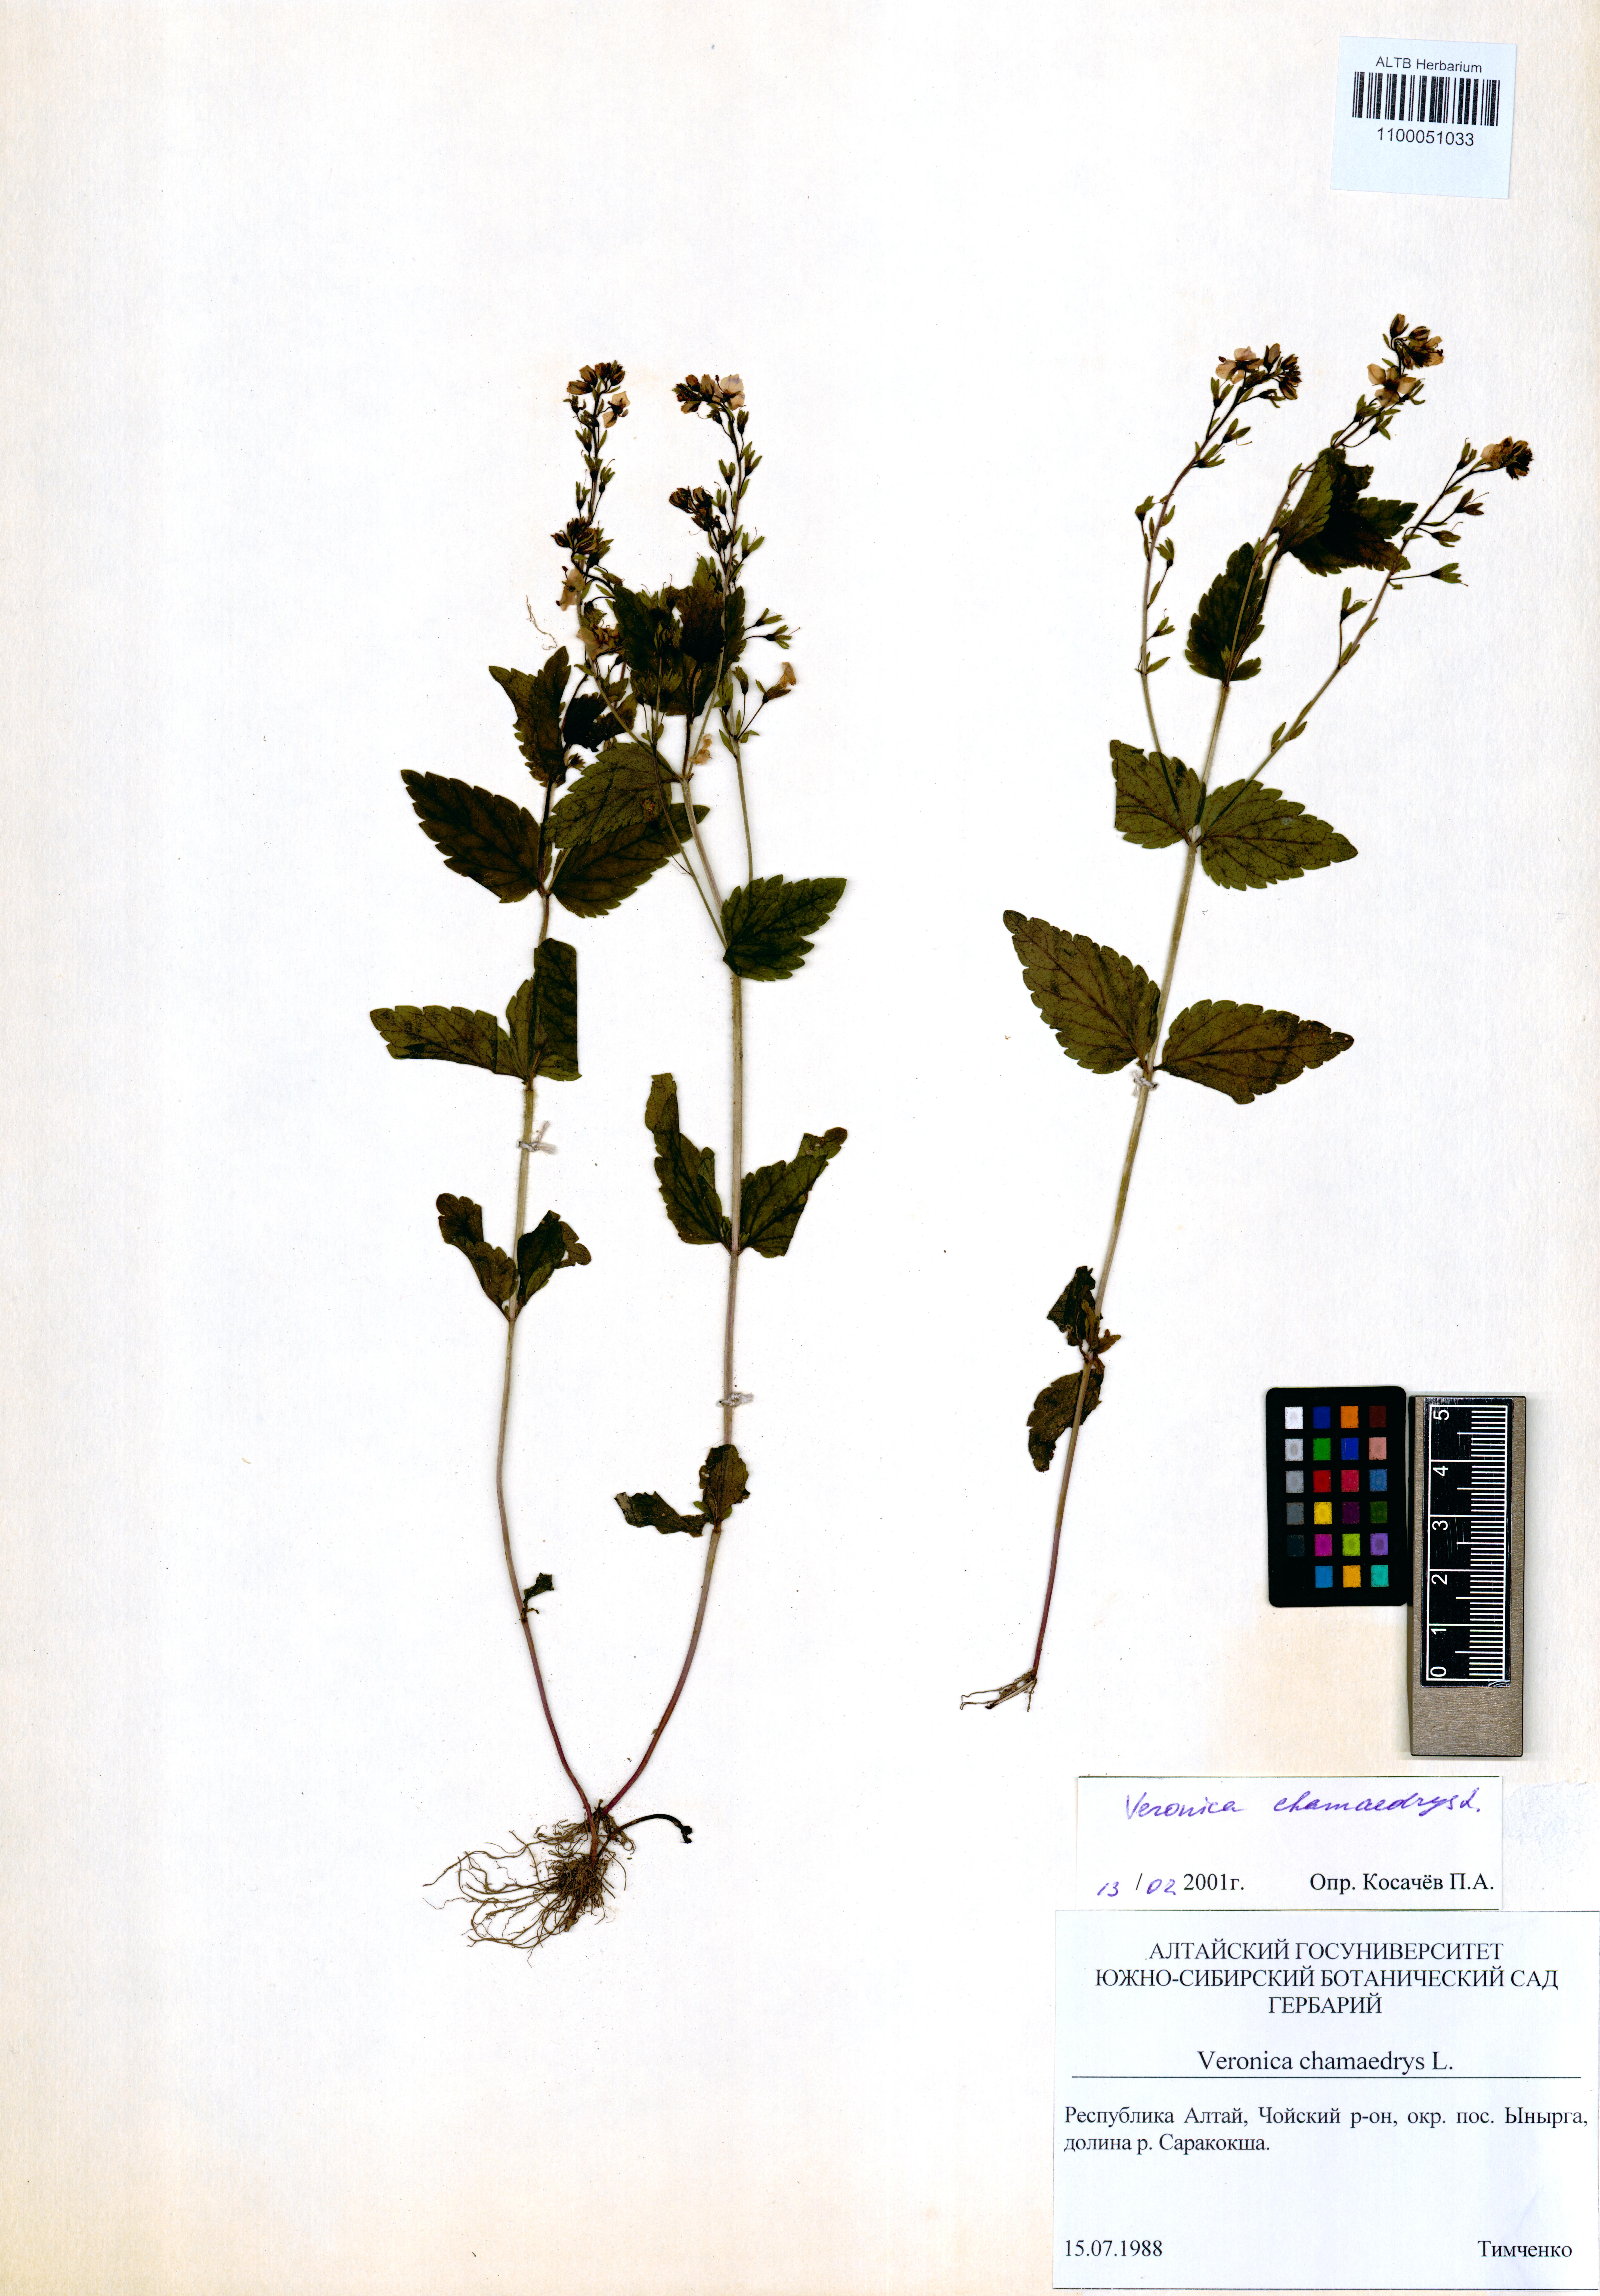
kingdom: Plantae
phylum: Tracheophyta
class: Magnoliopsida
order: Lamiales
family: Plantaginaceae
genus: Veronica
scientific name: Veronica chamaedrys
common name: Germander speedwell
